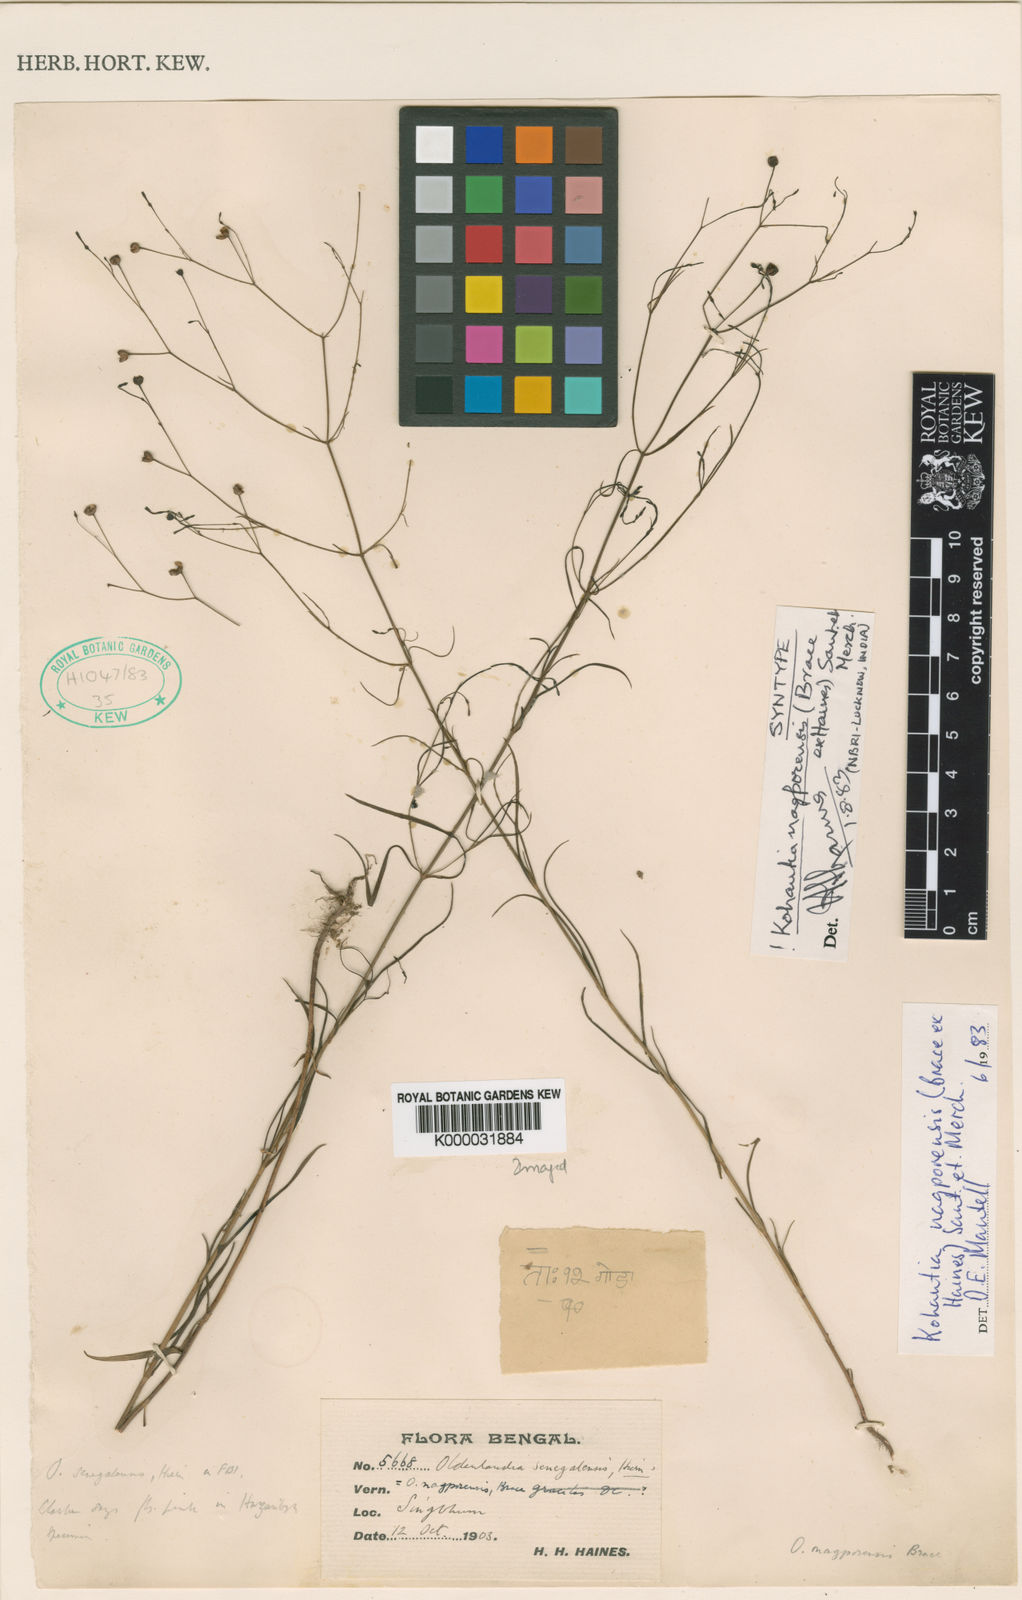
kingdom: Plantae
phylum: Tracheophyta
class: Magnoliopsida
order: Gentianales
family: Rubiaceae
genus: Kohautia
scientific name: Kohautia nagporensis
